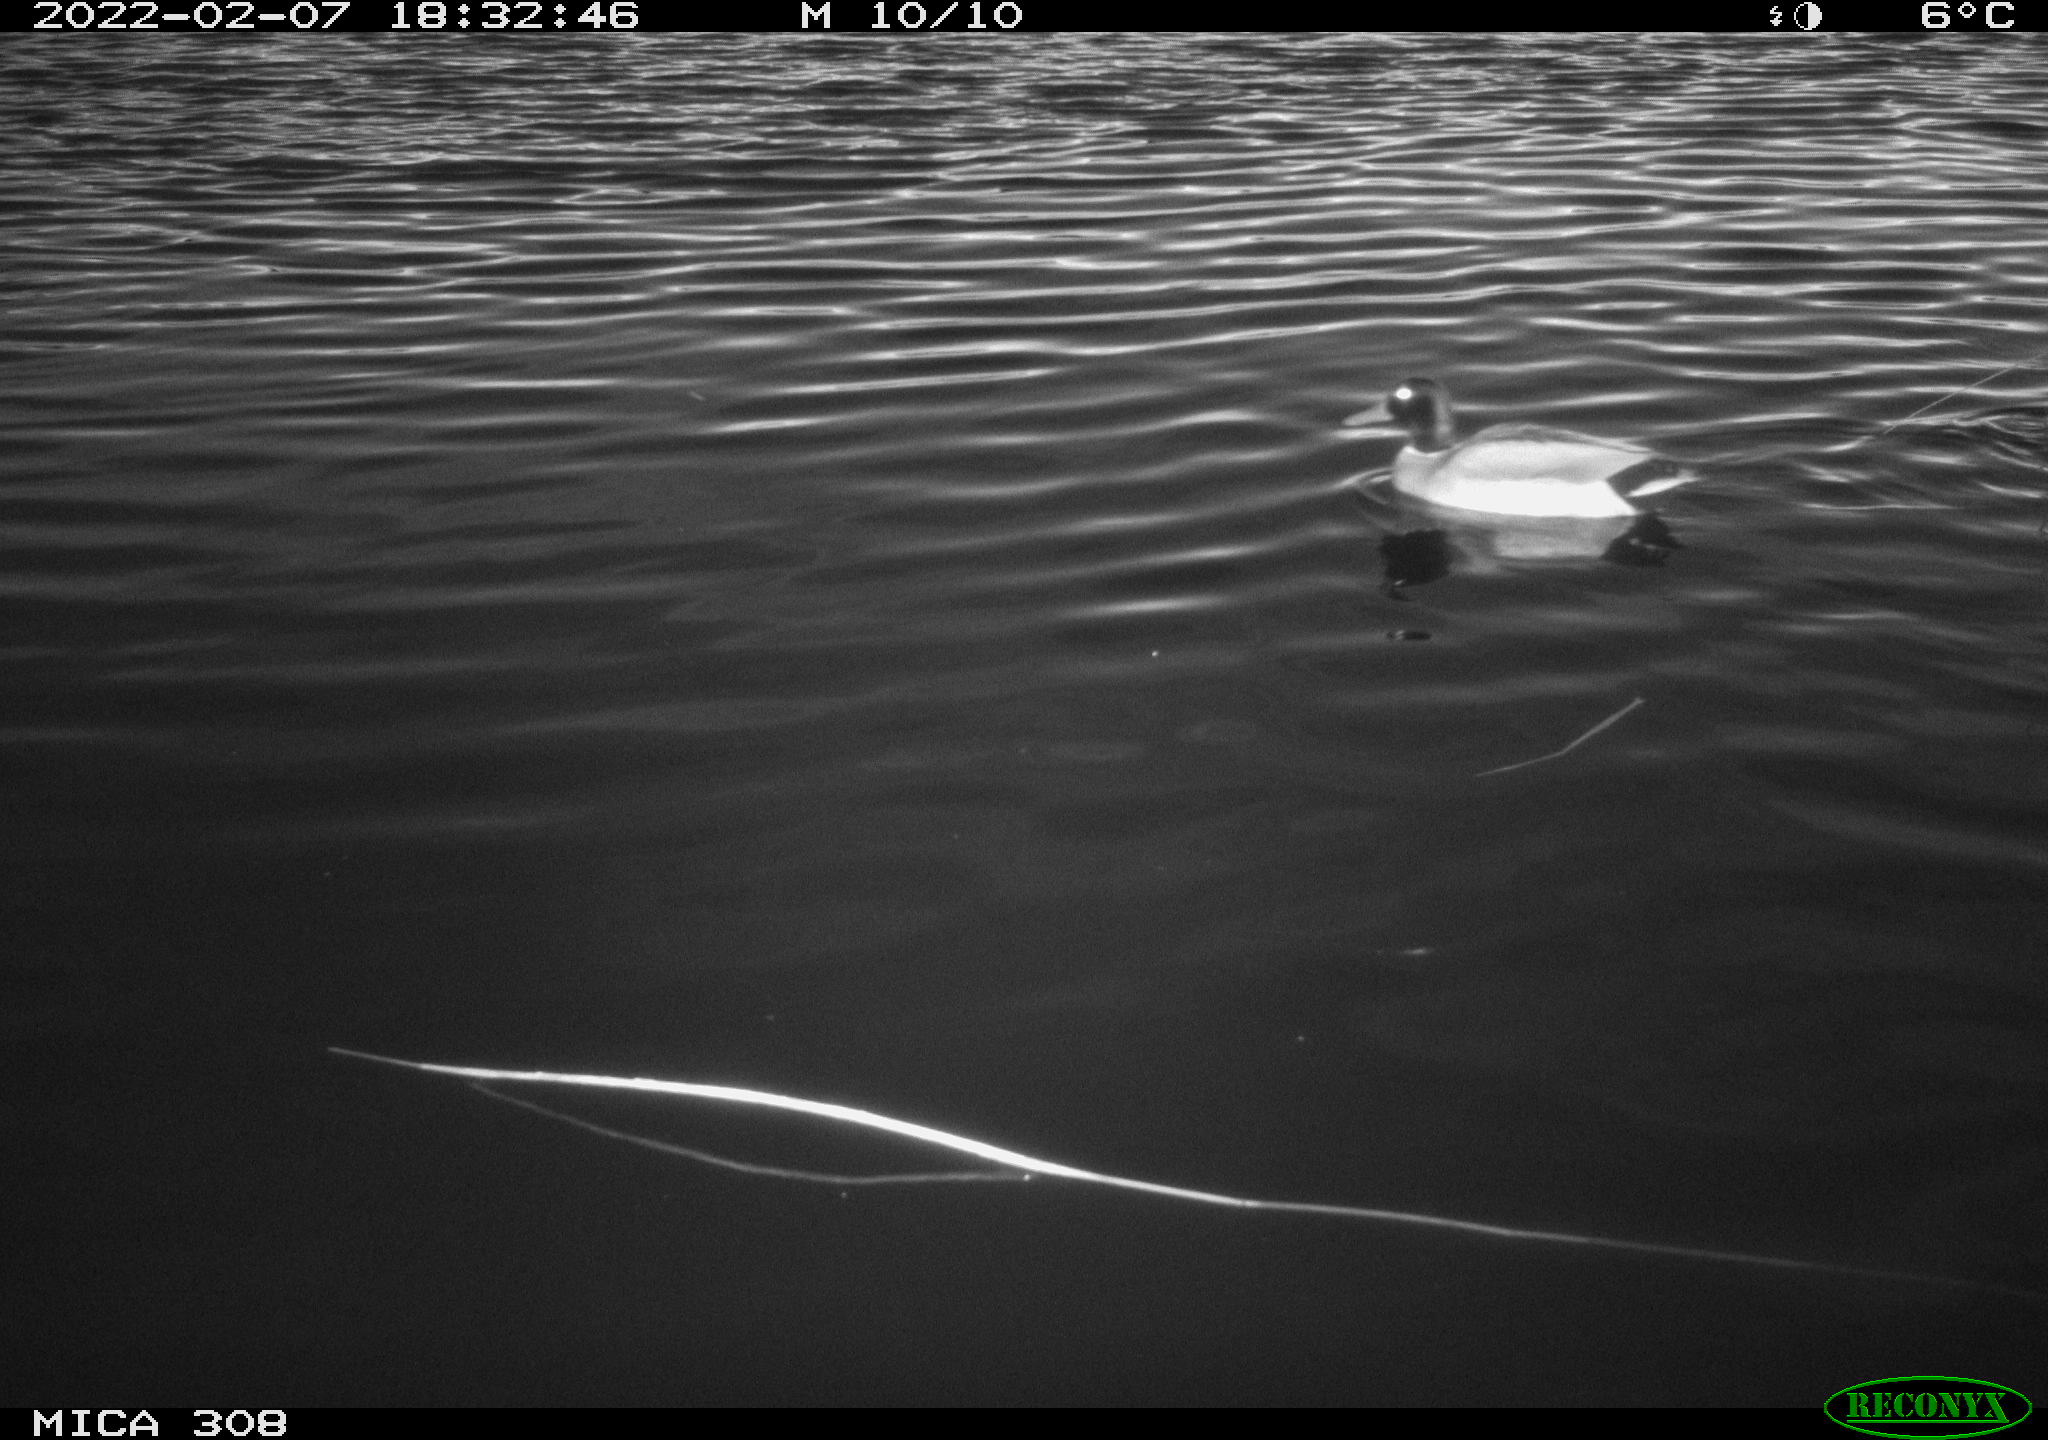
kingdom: Animalia
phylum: Chordata
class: Aves
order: Anseriformes
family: Anatidae
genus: Anas
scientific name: Anas platyrhynchos
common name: Mallard
